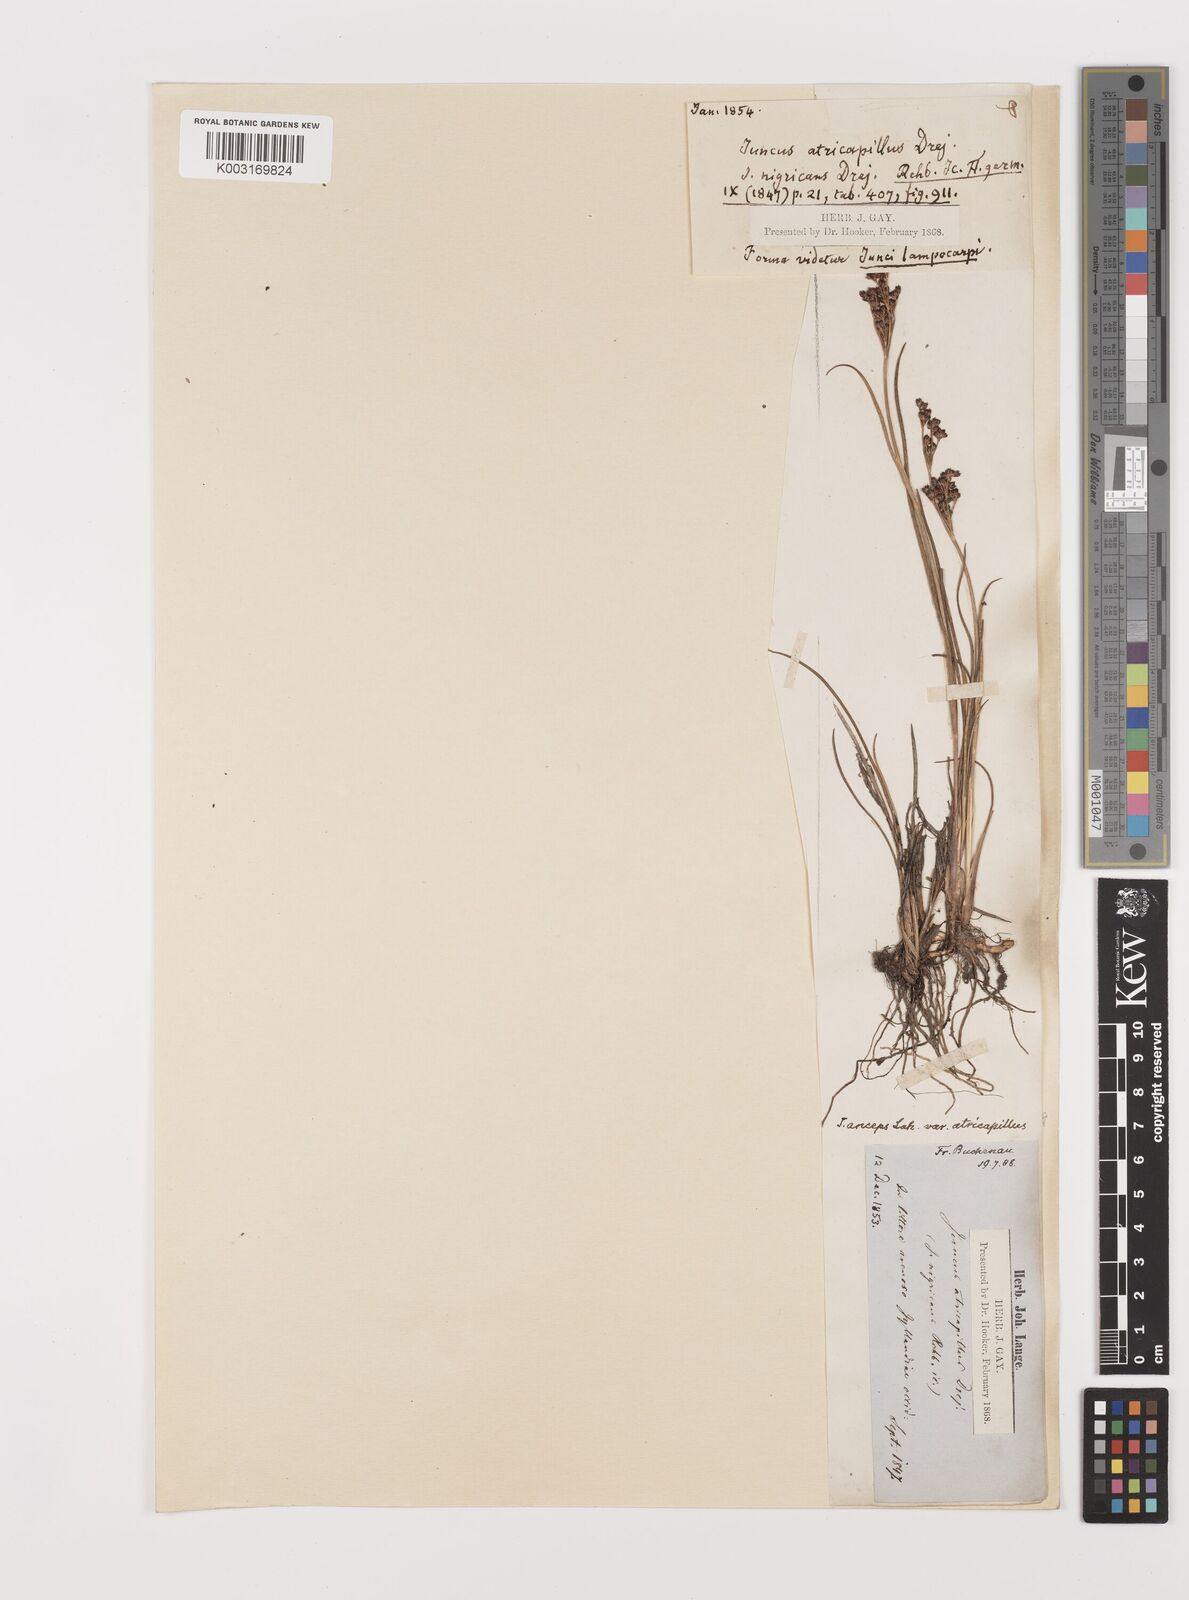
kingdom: Plantae
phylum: Tracheophyta
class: Liliopsida
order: Poales
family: Juncaceae
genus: Juncus
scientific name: Juncus anceps
